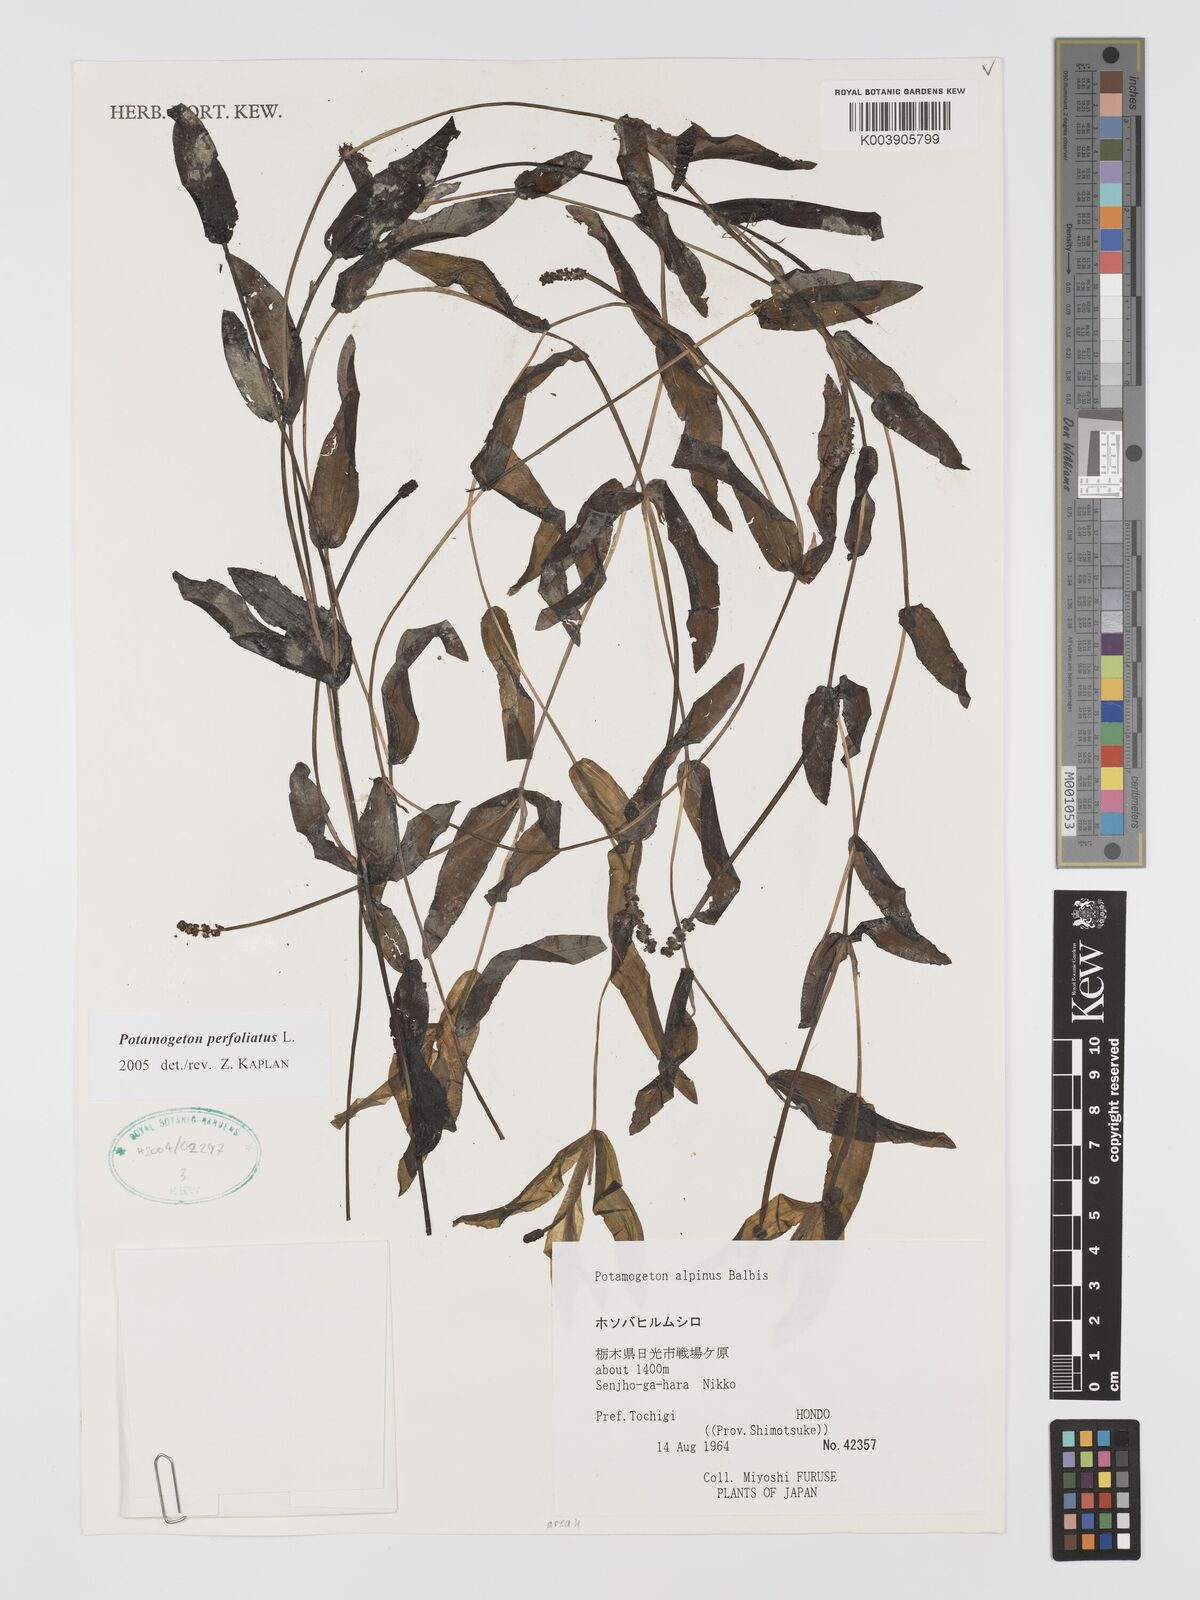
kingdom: Plantae
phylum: Tracheophyta
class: Liliopsida
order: Alismatales
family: Potamogetonaceae
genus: Potamogeton
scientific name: Potamogeton perfoliatus
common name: Perfoliate pondweed
